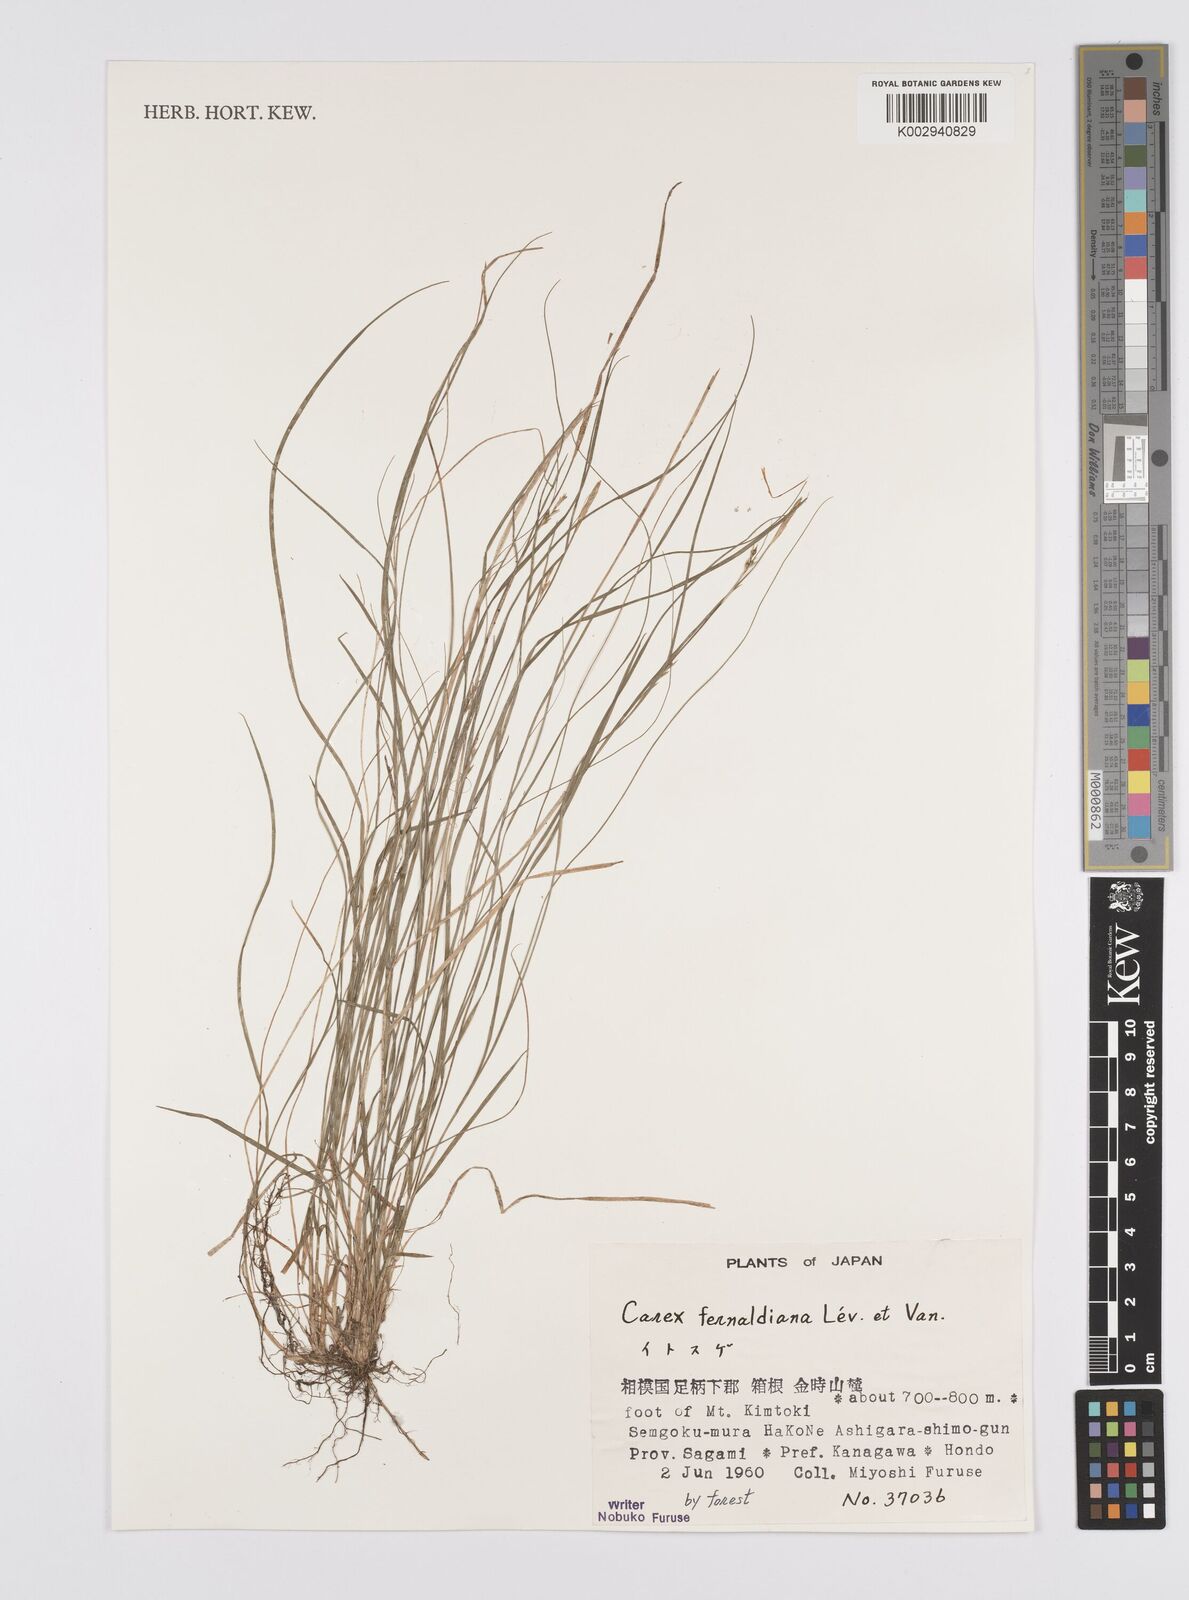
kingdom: Plantae
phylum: Tracheophyta
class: Liliopsida
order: Poales
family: Cyperaceae
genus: Carex
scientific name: Carex breviculmis
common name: Asian shortstem sedge
